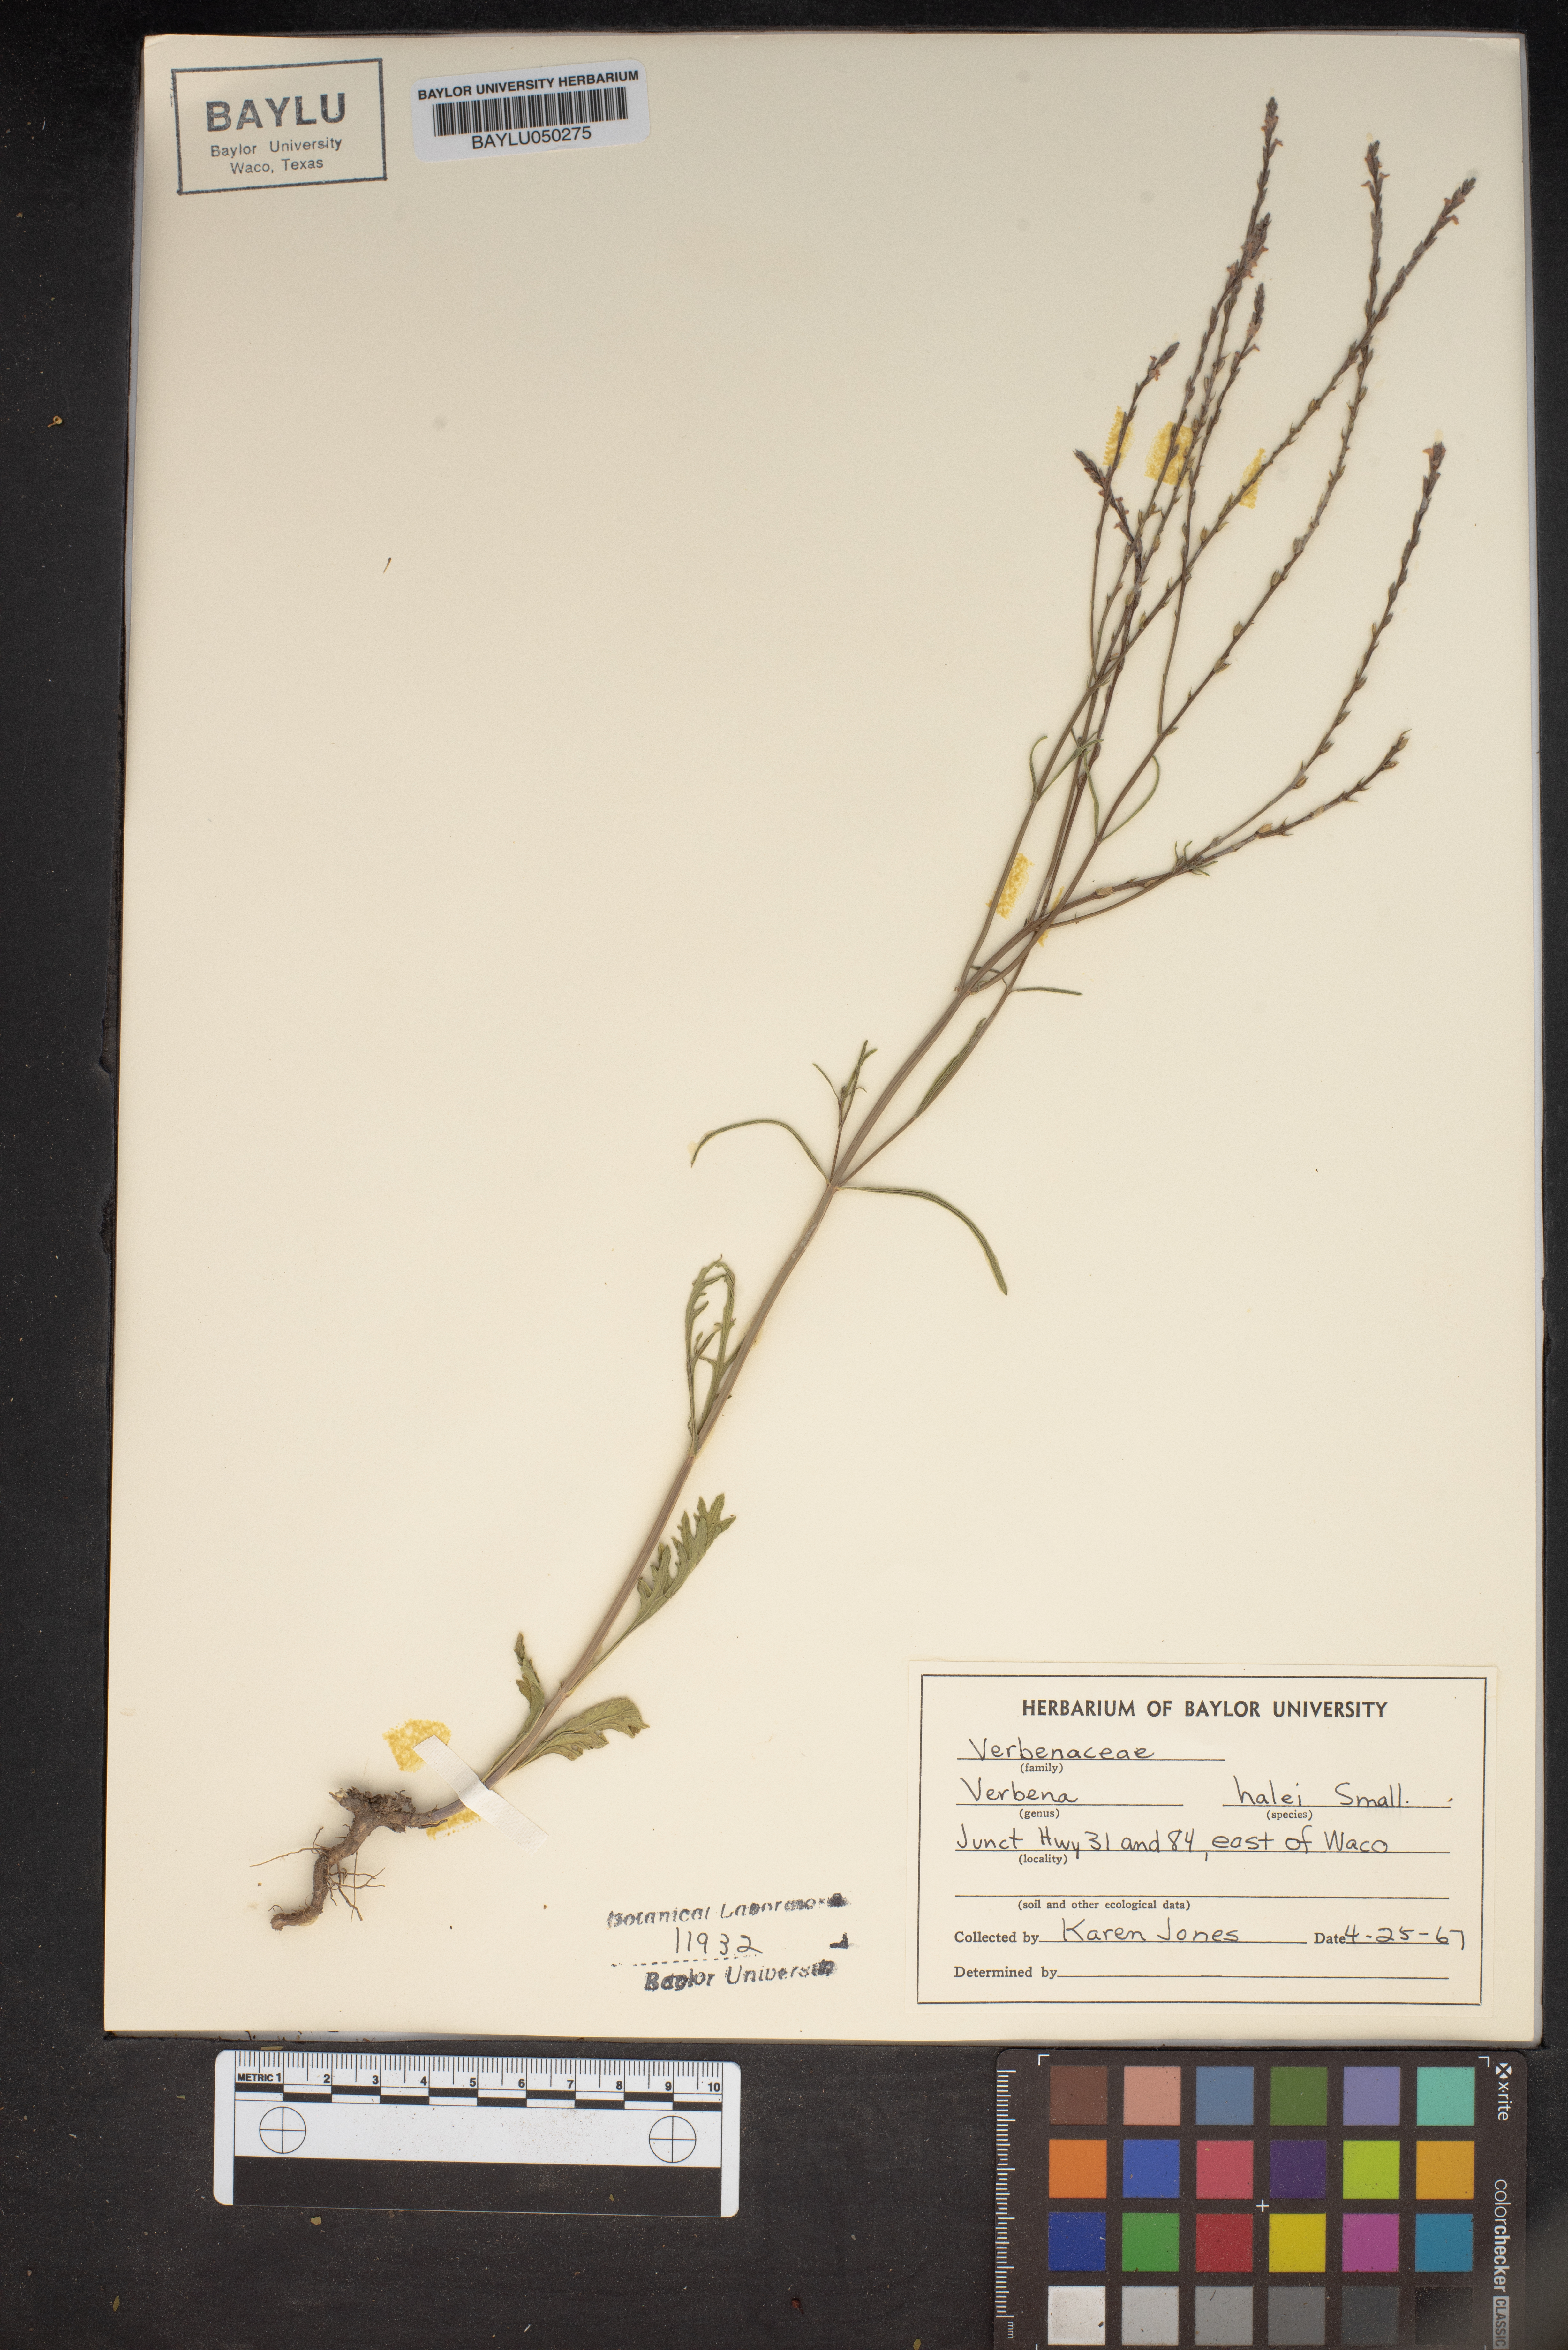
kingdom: Plantae
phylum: Tracheophyta
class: Magnoliopsida
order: Lamiales
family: Verbenaceae
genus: Verbena
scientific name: Verbena halei
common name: Texas vervain
